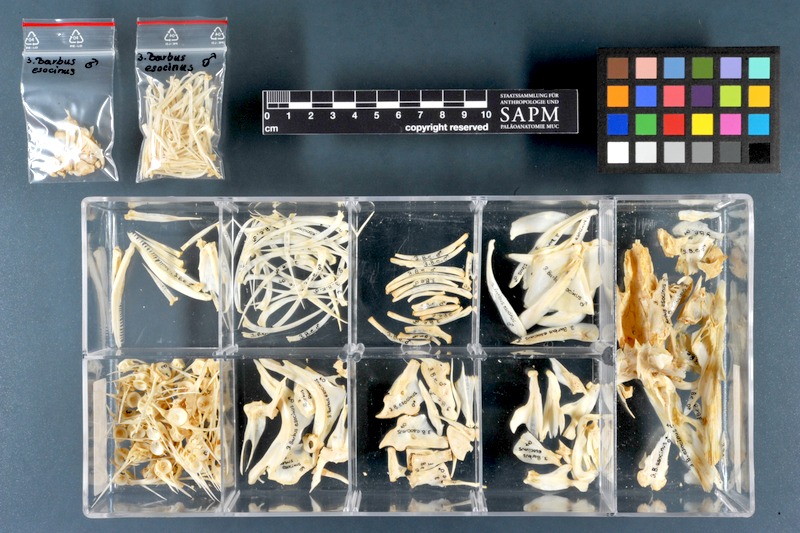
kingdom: Animalia
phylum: Chordata
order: Cypriniformes
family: Cyprinidae
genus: Luciobarbus
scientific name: Luciobarbus esocinus
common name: Pike barbel
